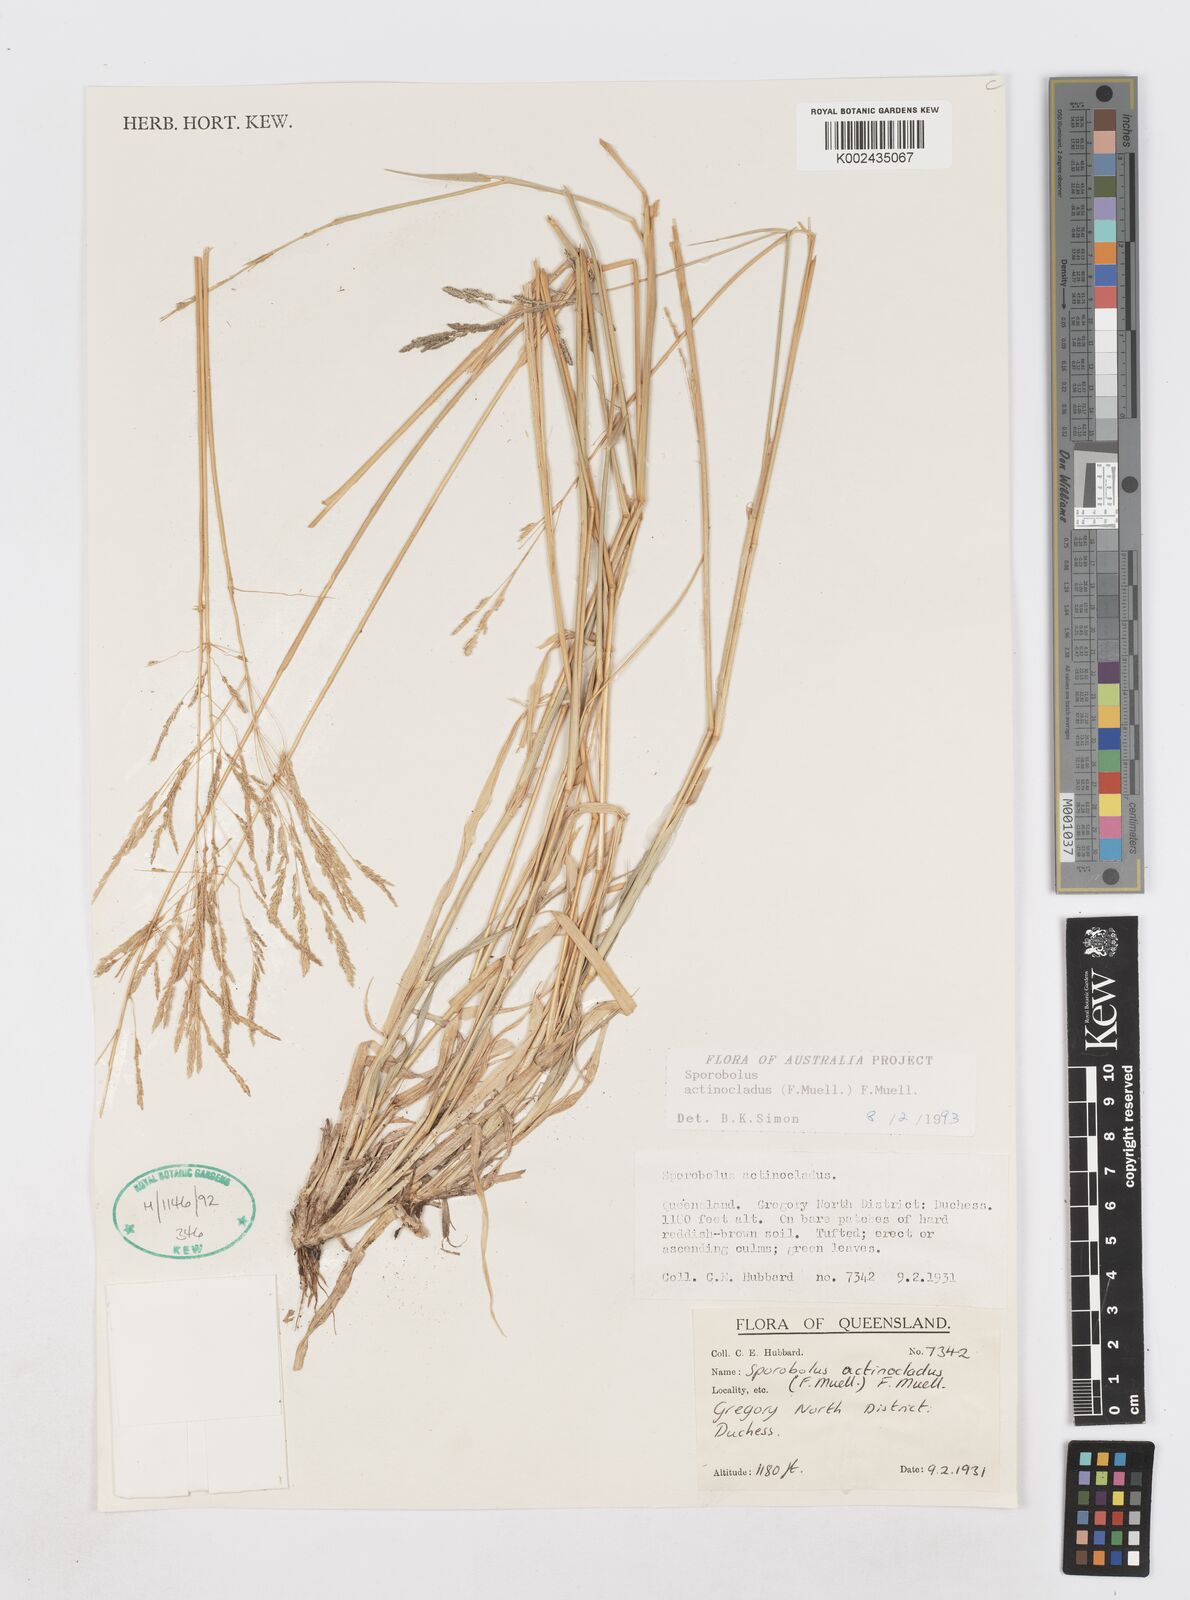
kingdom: Plantae
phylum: Tracheophyta
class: Liliopsida
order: Poales
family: Poaceae
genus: Sporobolus
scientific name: Sporobolus actinocladus
